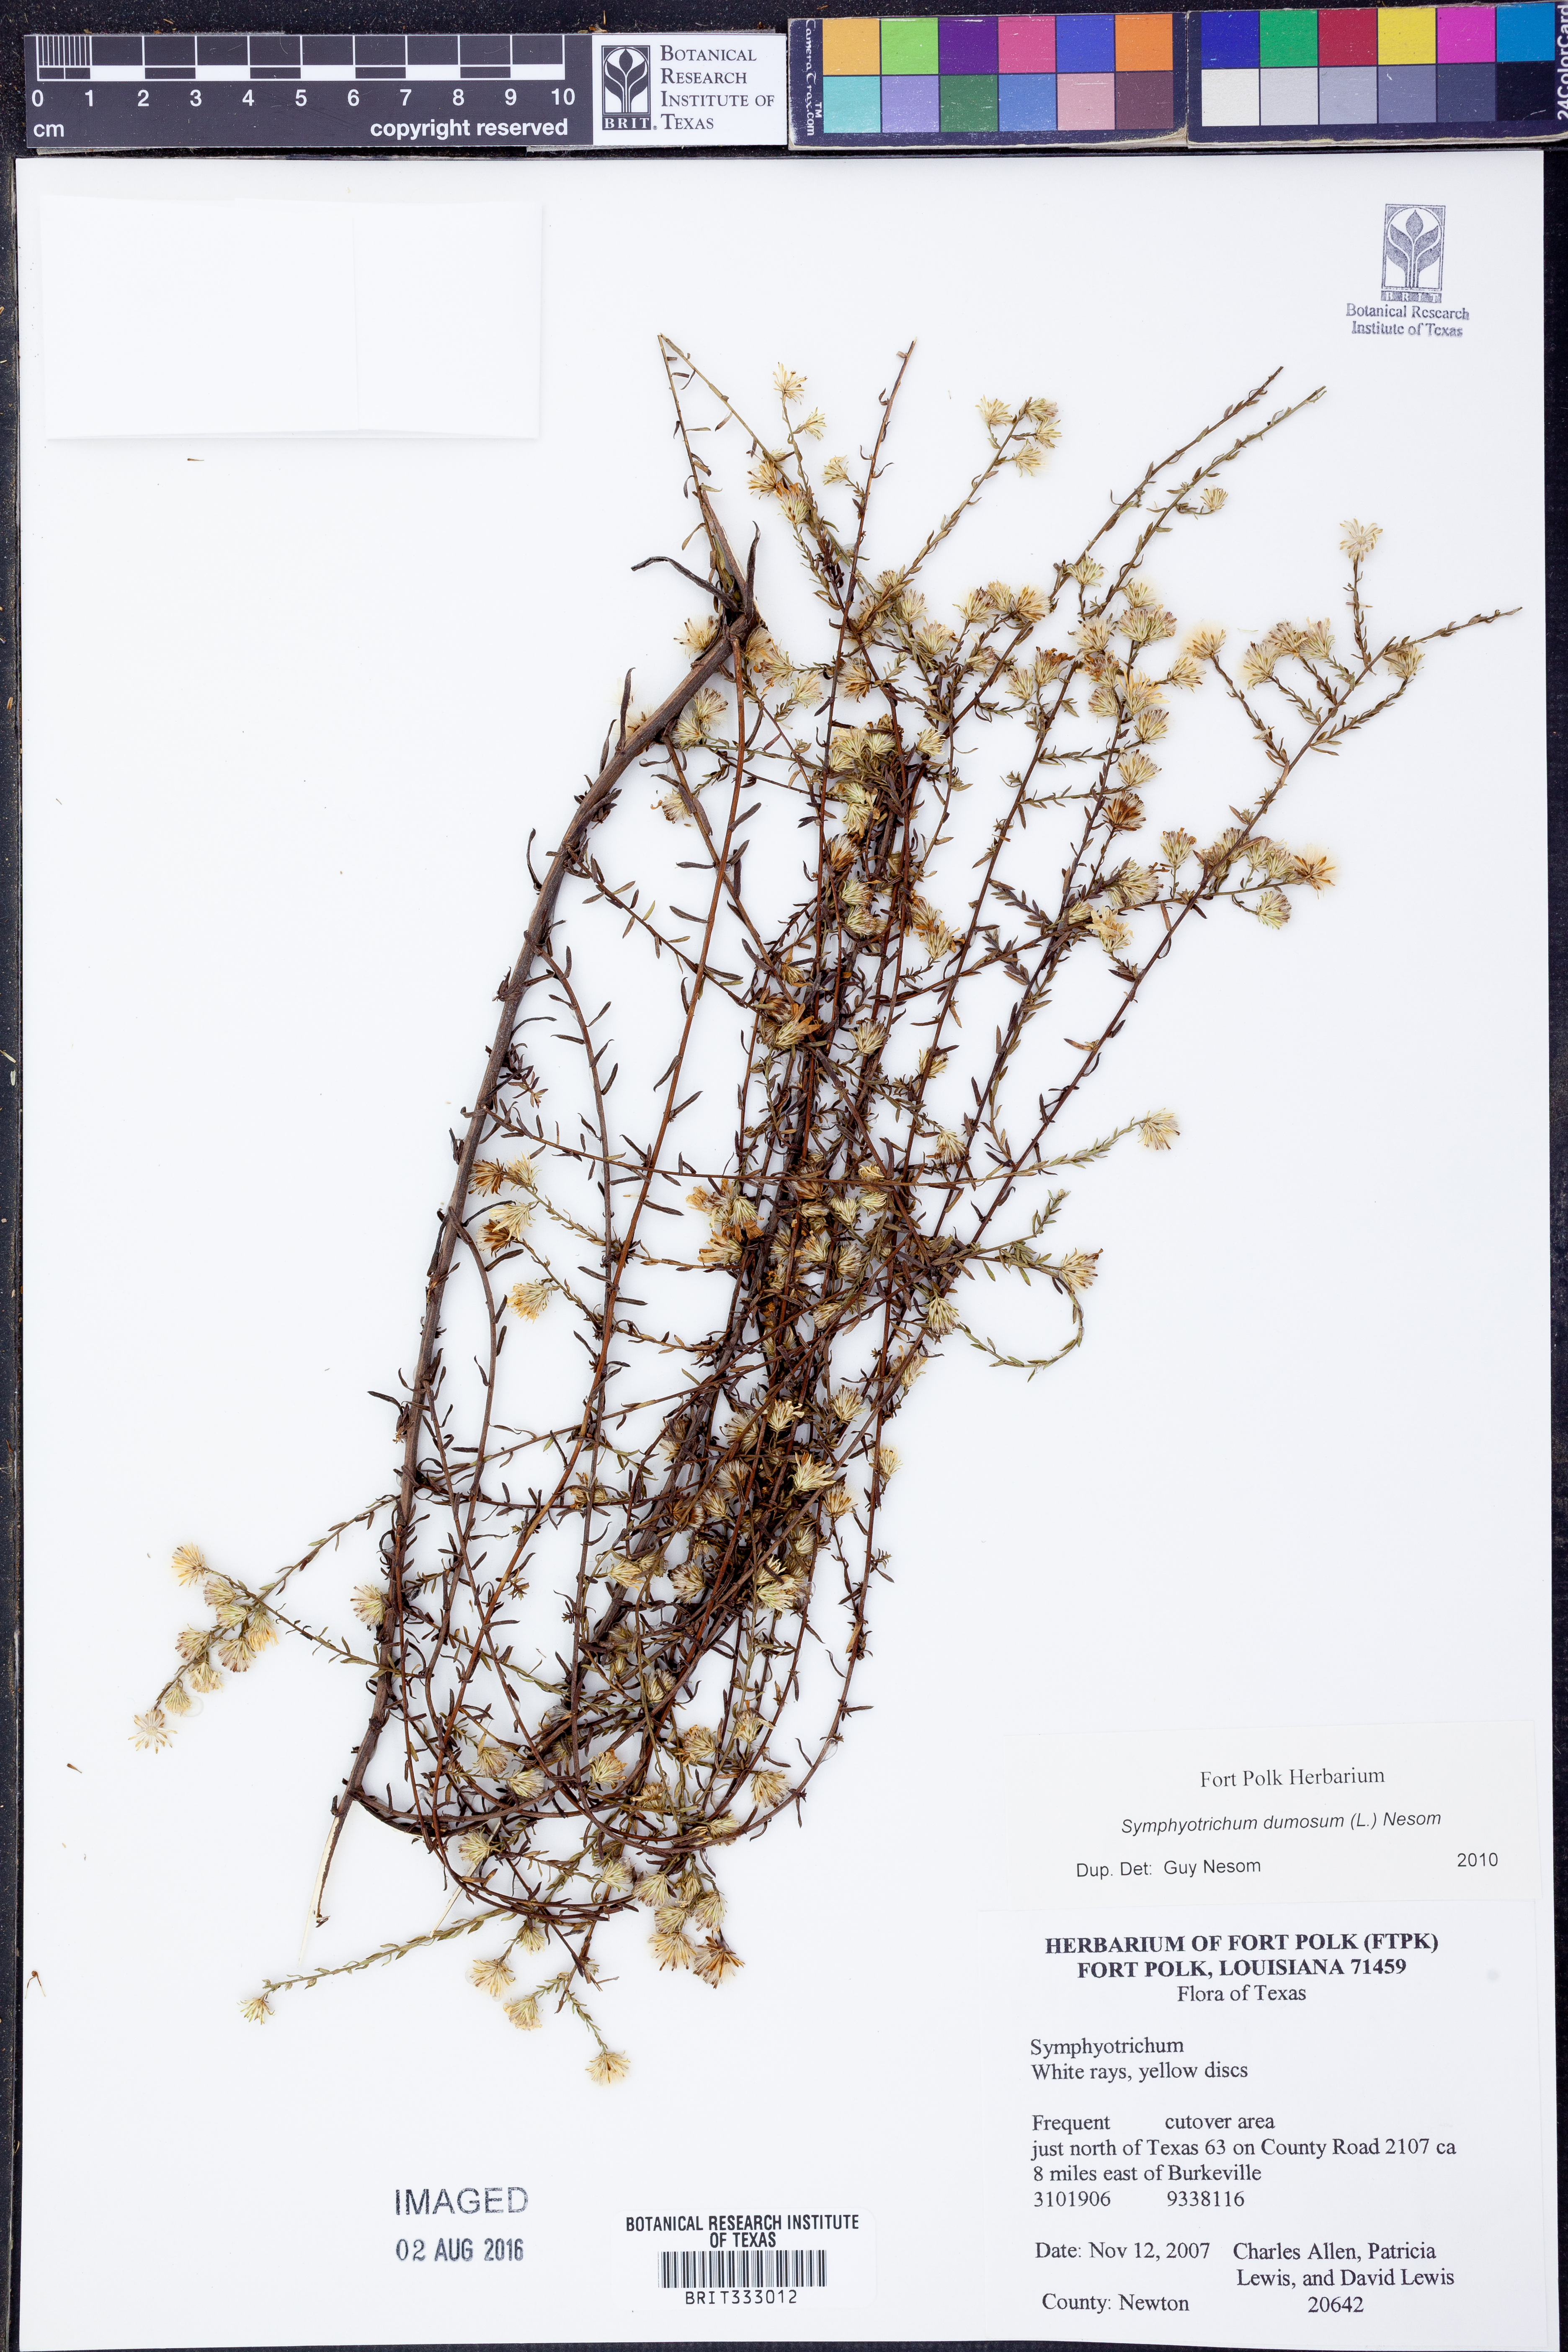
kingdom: Plantae
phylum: Tracheophyta
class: Magnoliopsida
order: Asterales
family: Asteraceae
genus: Symphyotrichum
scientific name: Symphyotrichum dumosum
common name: Bushy aster
